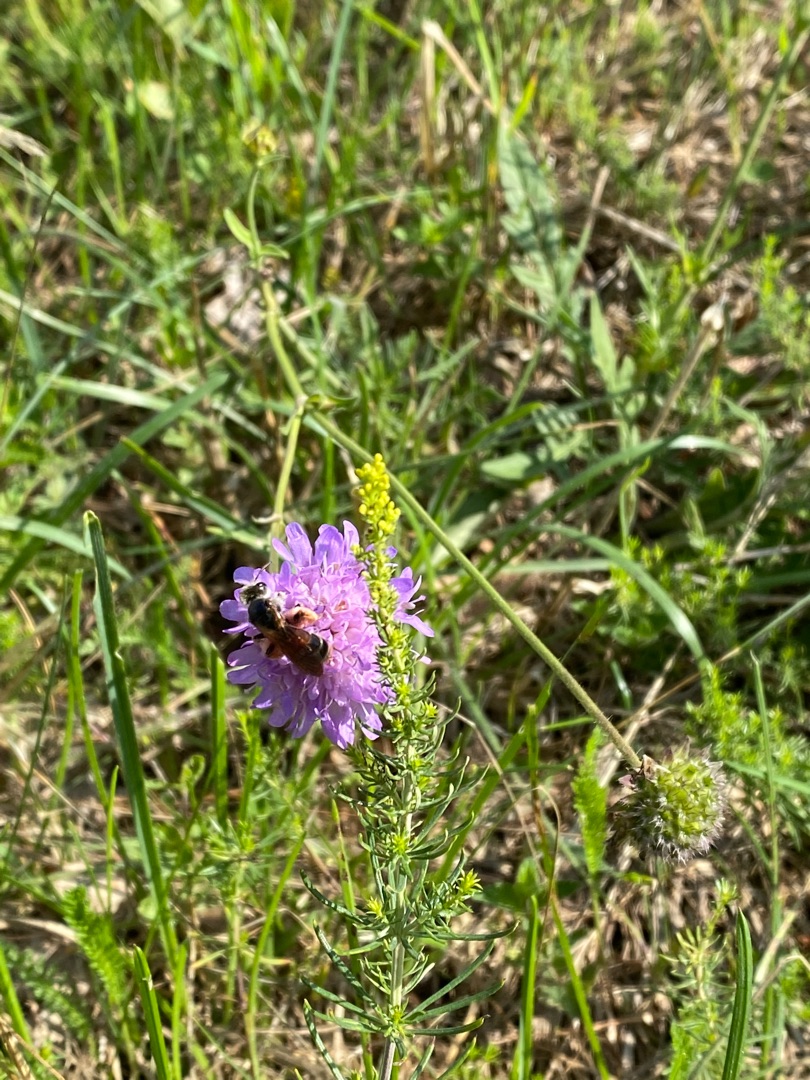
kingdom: Animalia
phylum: Arthropoda
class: Insecta
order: Hymenoptera
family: Andrenidae
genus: Andrena
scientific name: Andrena hattorfiana
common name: Blåhatjordbi
